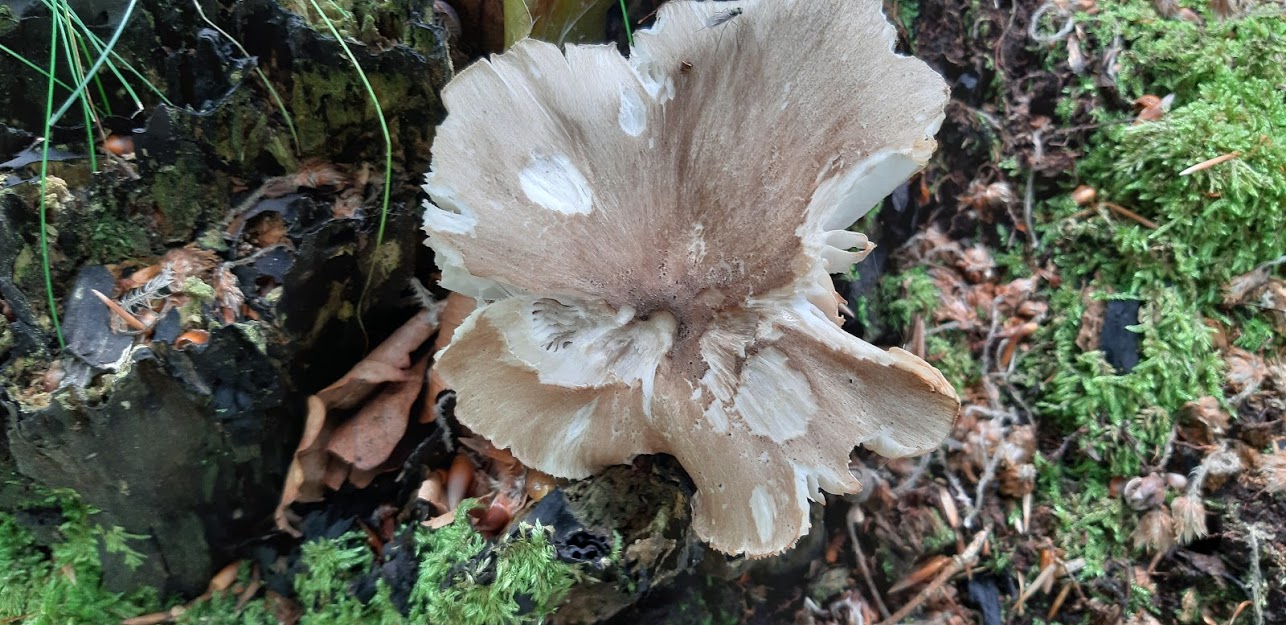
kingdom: Fungi
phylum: Basidiomycota
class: Agaricomycetes
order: Agaricales
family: Tricholomataceae
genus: Megacollybia
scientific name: Megacollybia platyphylla
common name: bredbladet væbnerhat
